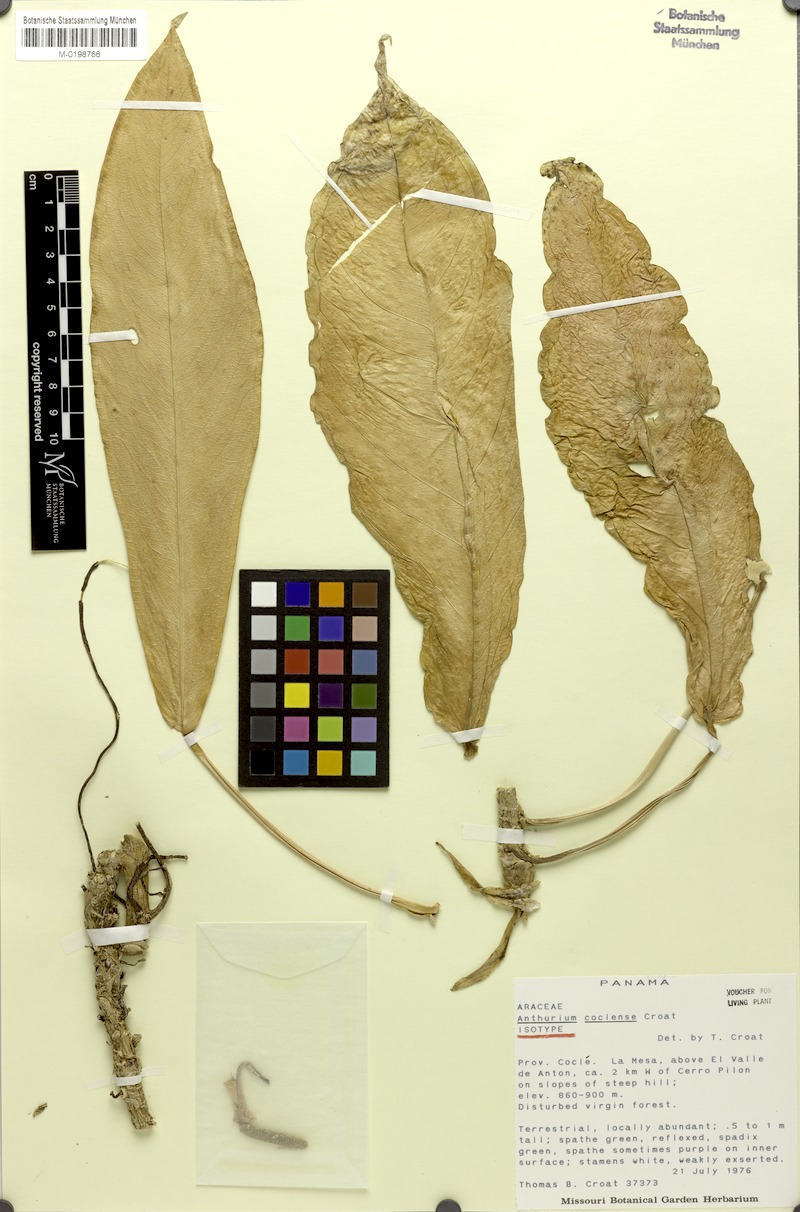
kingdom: Plantae
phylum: Tracheophyta
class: Liliopsida
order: Alismatales
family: Araceae
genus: Anthurium
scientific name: Anthurium coclense
